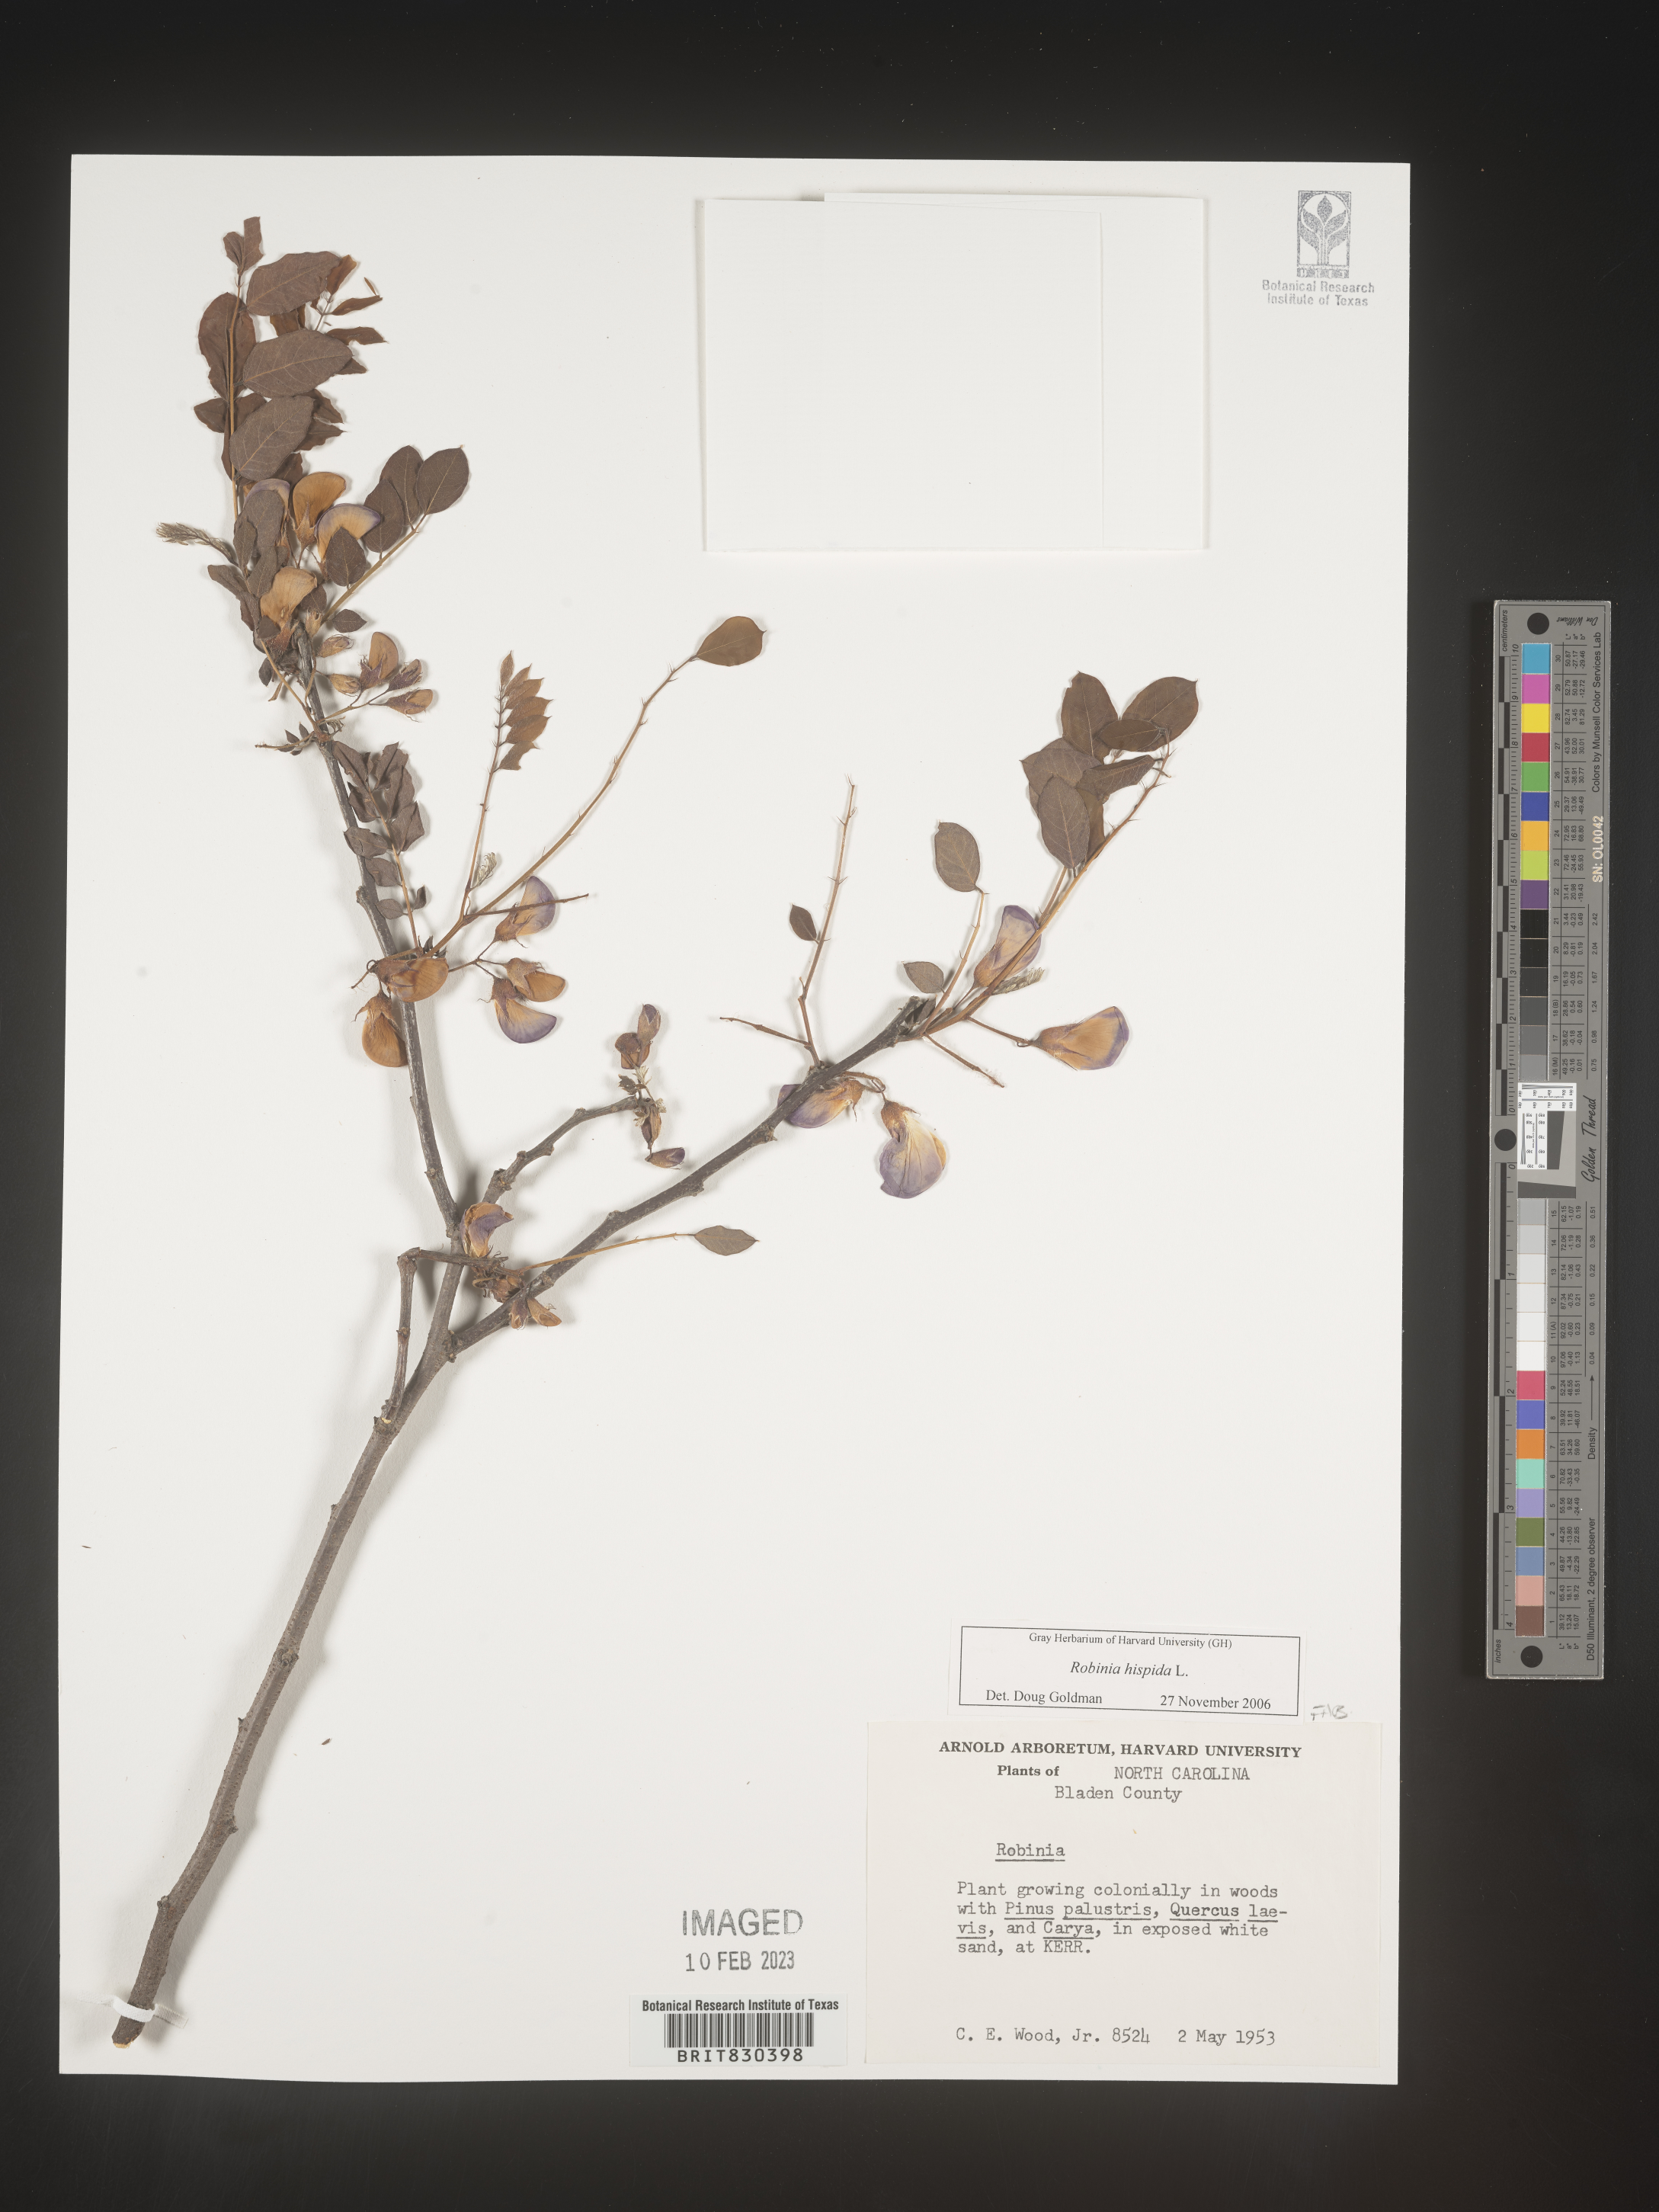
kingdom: Plantae
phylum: Tracheophyta
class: Magnoliopsida
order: Fabales
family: Fabaceae
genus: Robinia
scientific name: Robinia hispida
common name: Bristly locust
